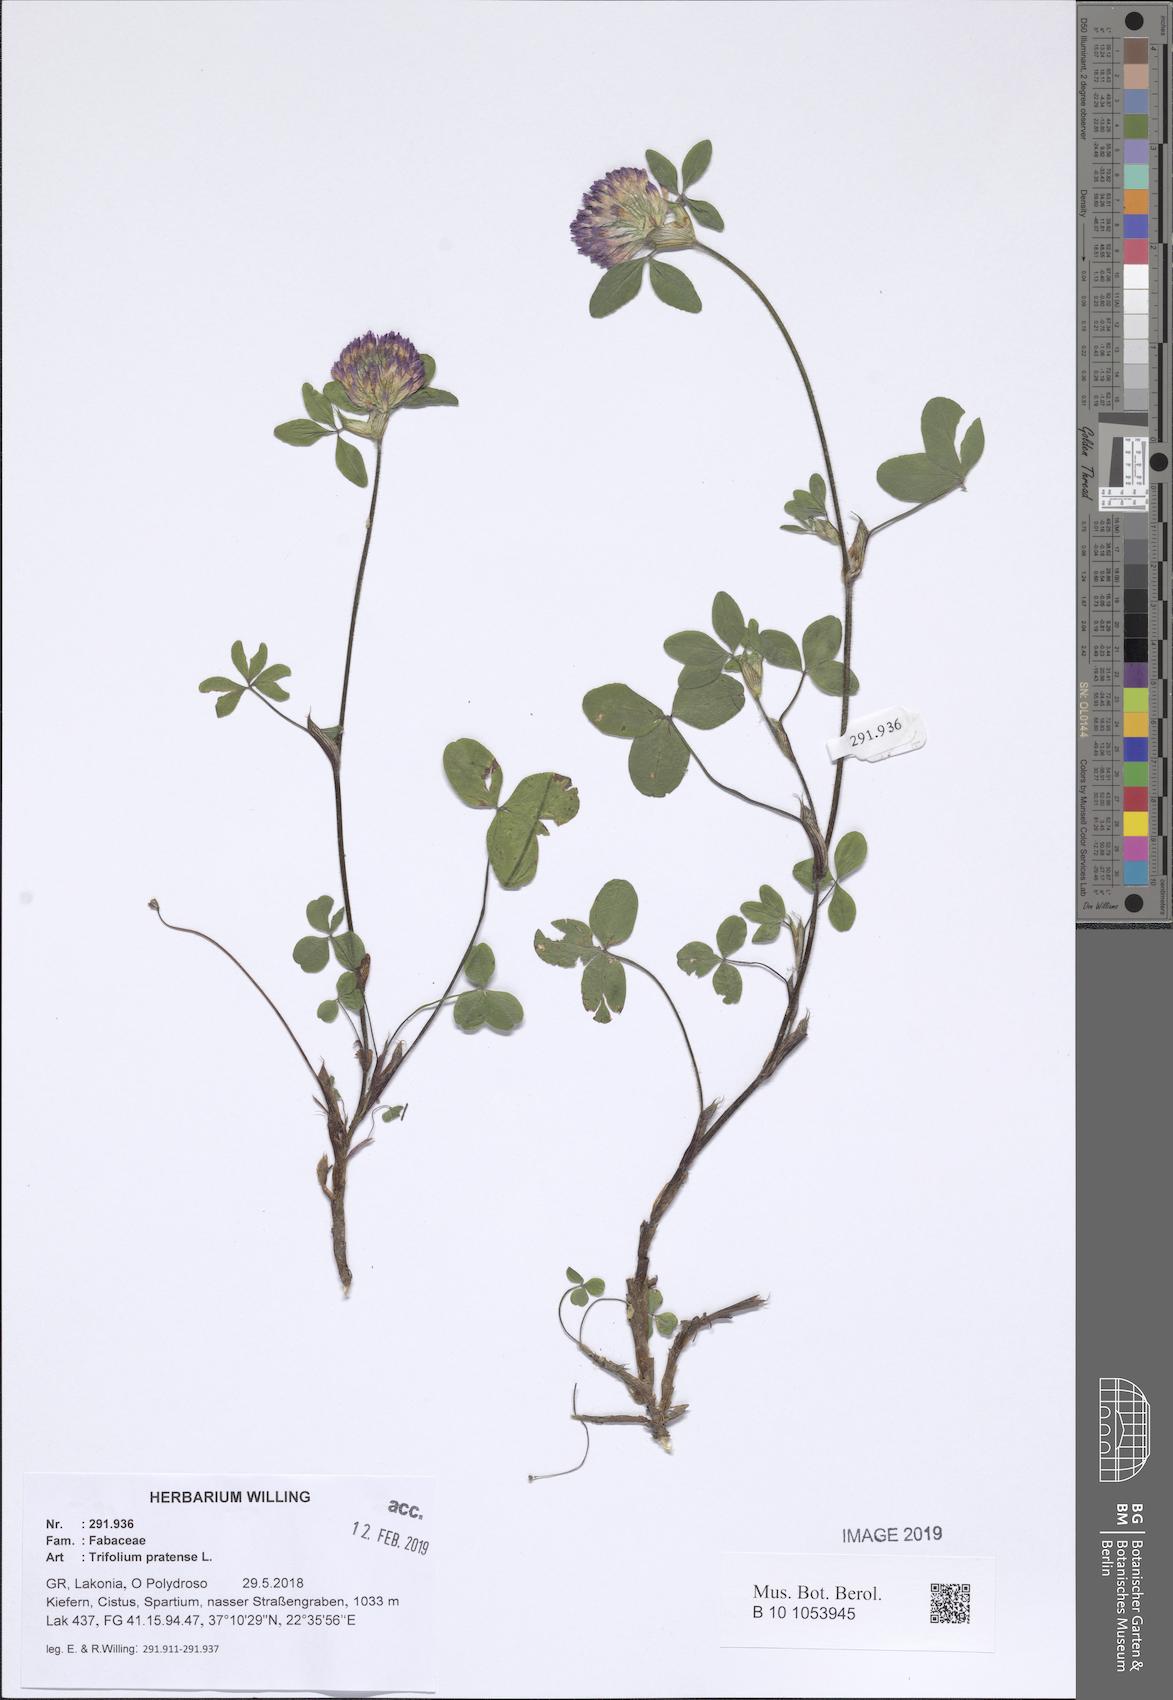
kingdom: Plantae
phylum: Tracheophyta
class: Magnoliopsida
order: Fabales
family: Fabaceae
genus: Trifolium
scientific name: Trifolium pratense
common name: Red clover
